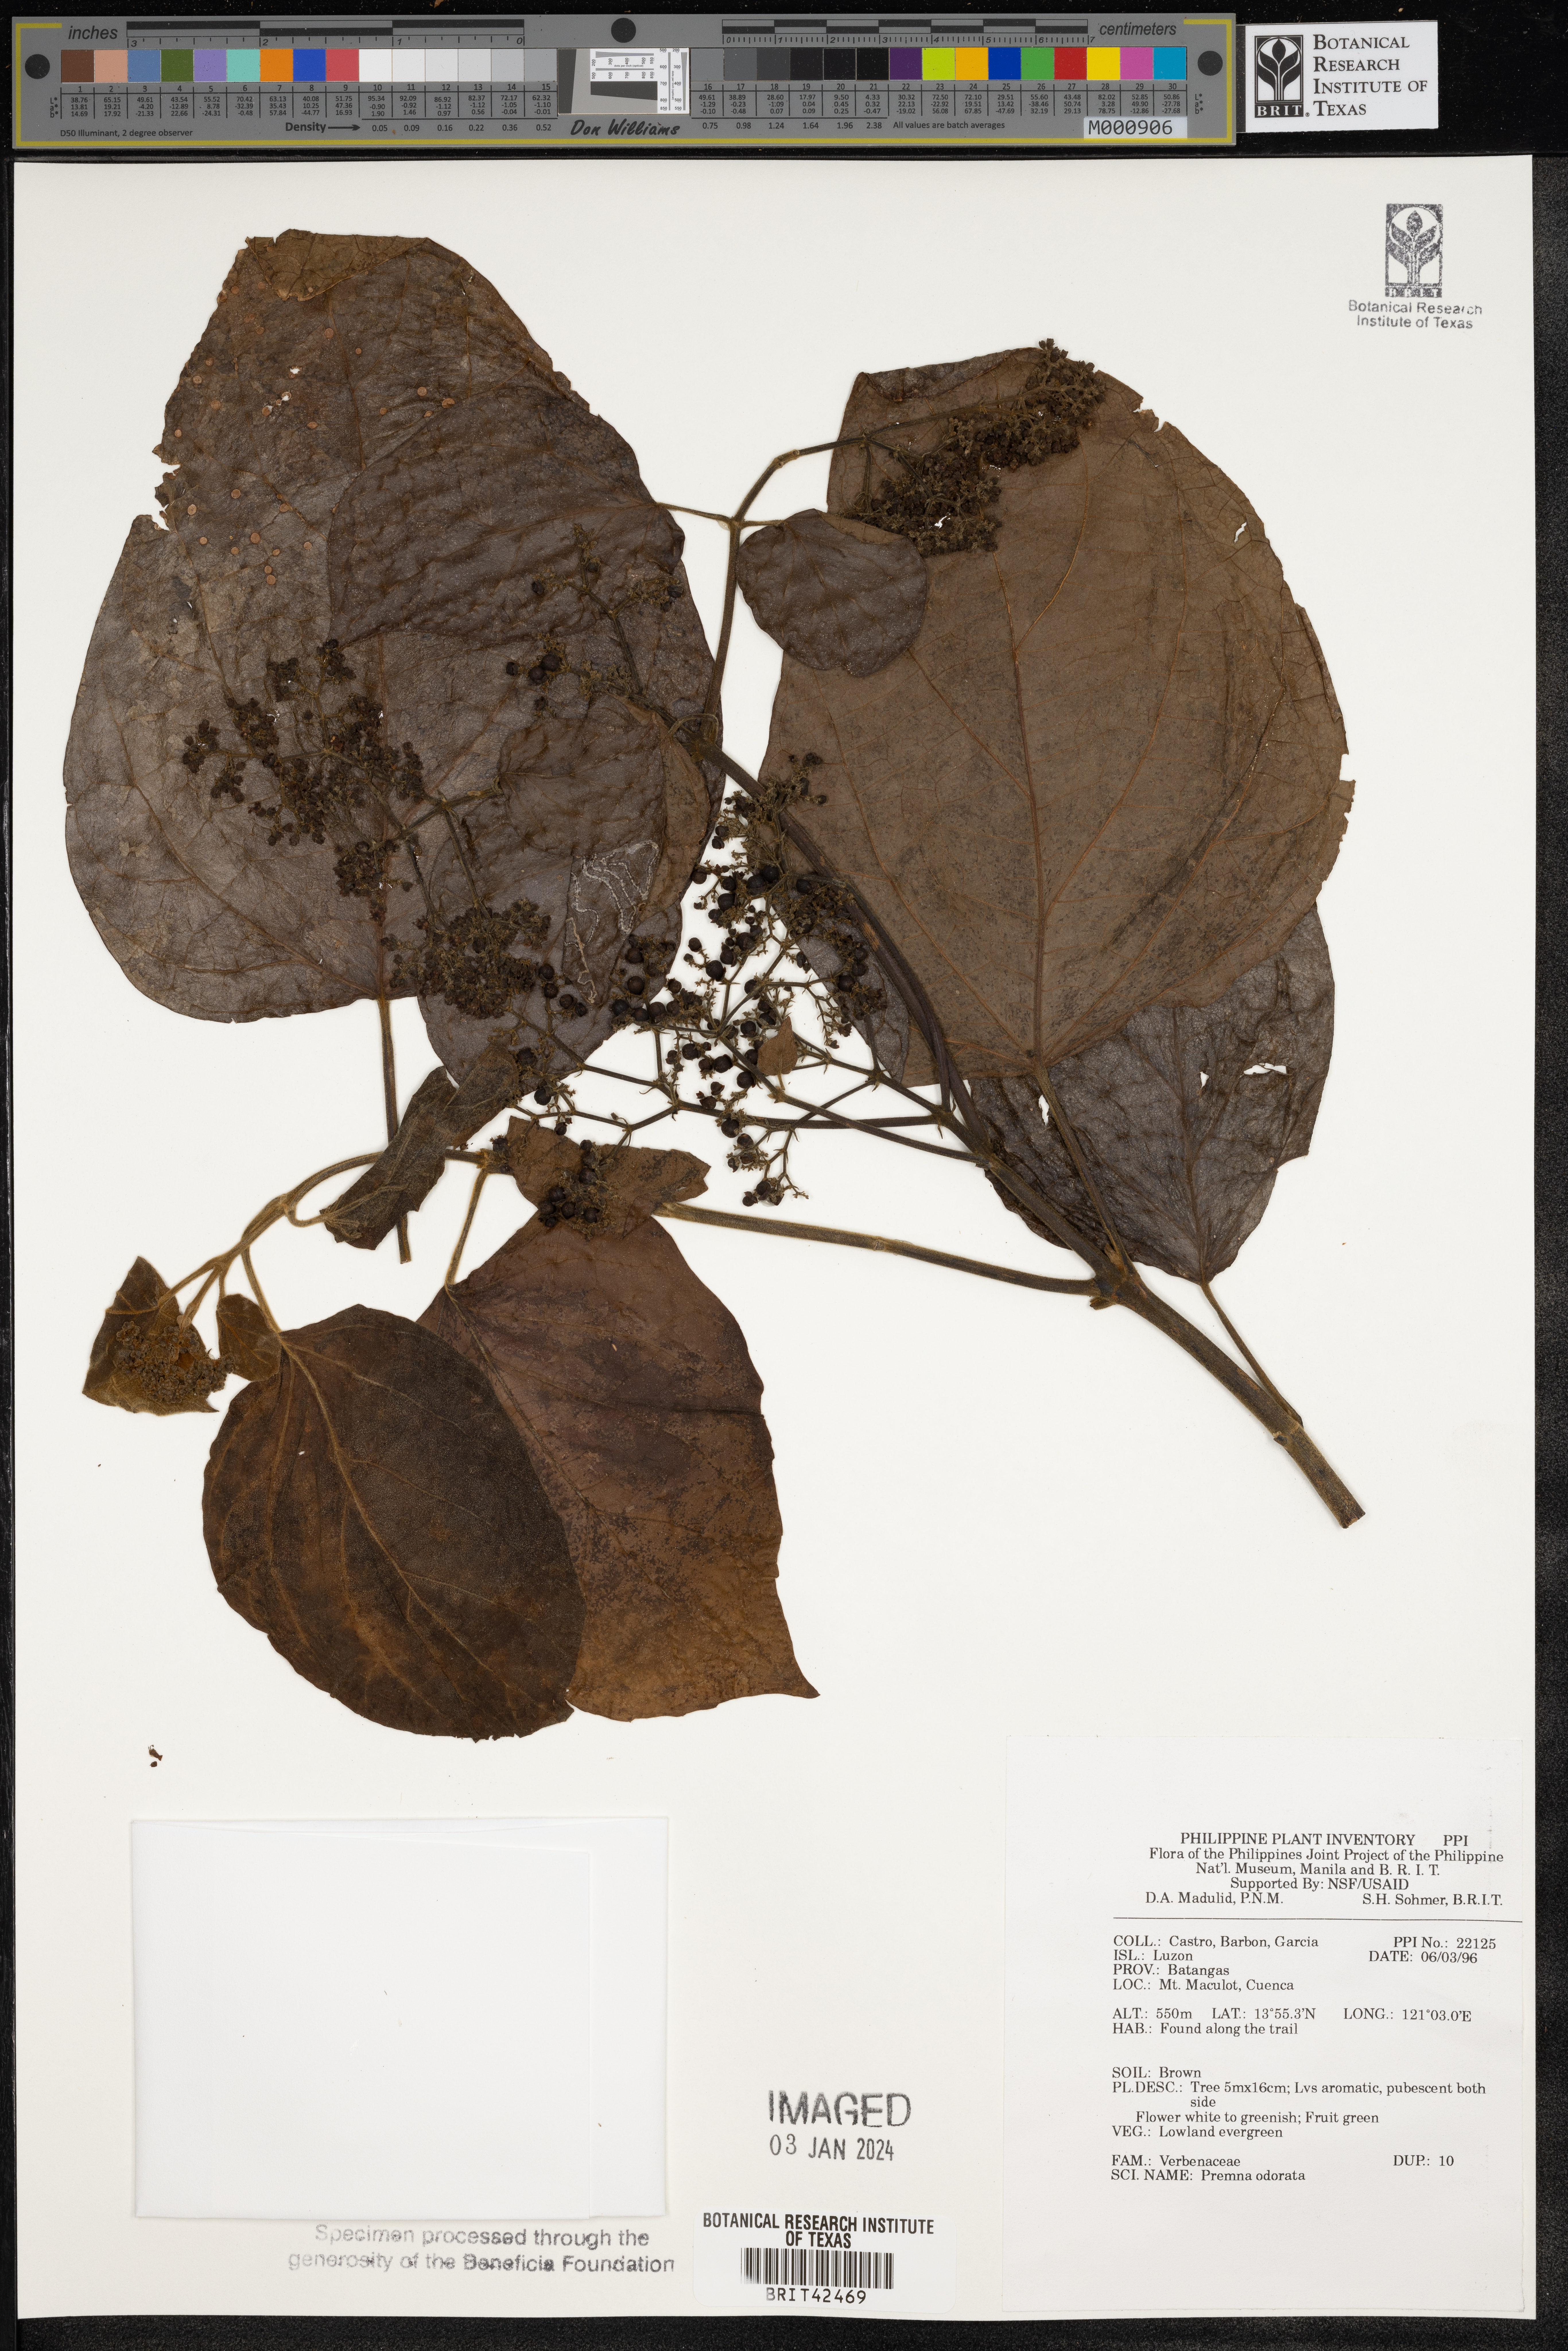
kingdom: Plantae
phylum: Tracheophyta
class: Magnoliopsida
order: Lamiales
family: Lamiaceae
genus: Premna
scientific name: Premna odorata
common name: Fragrant premna
